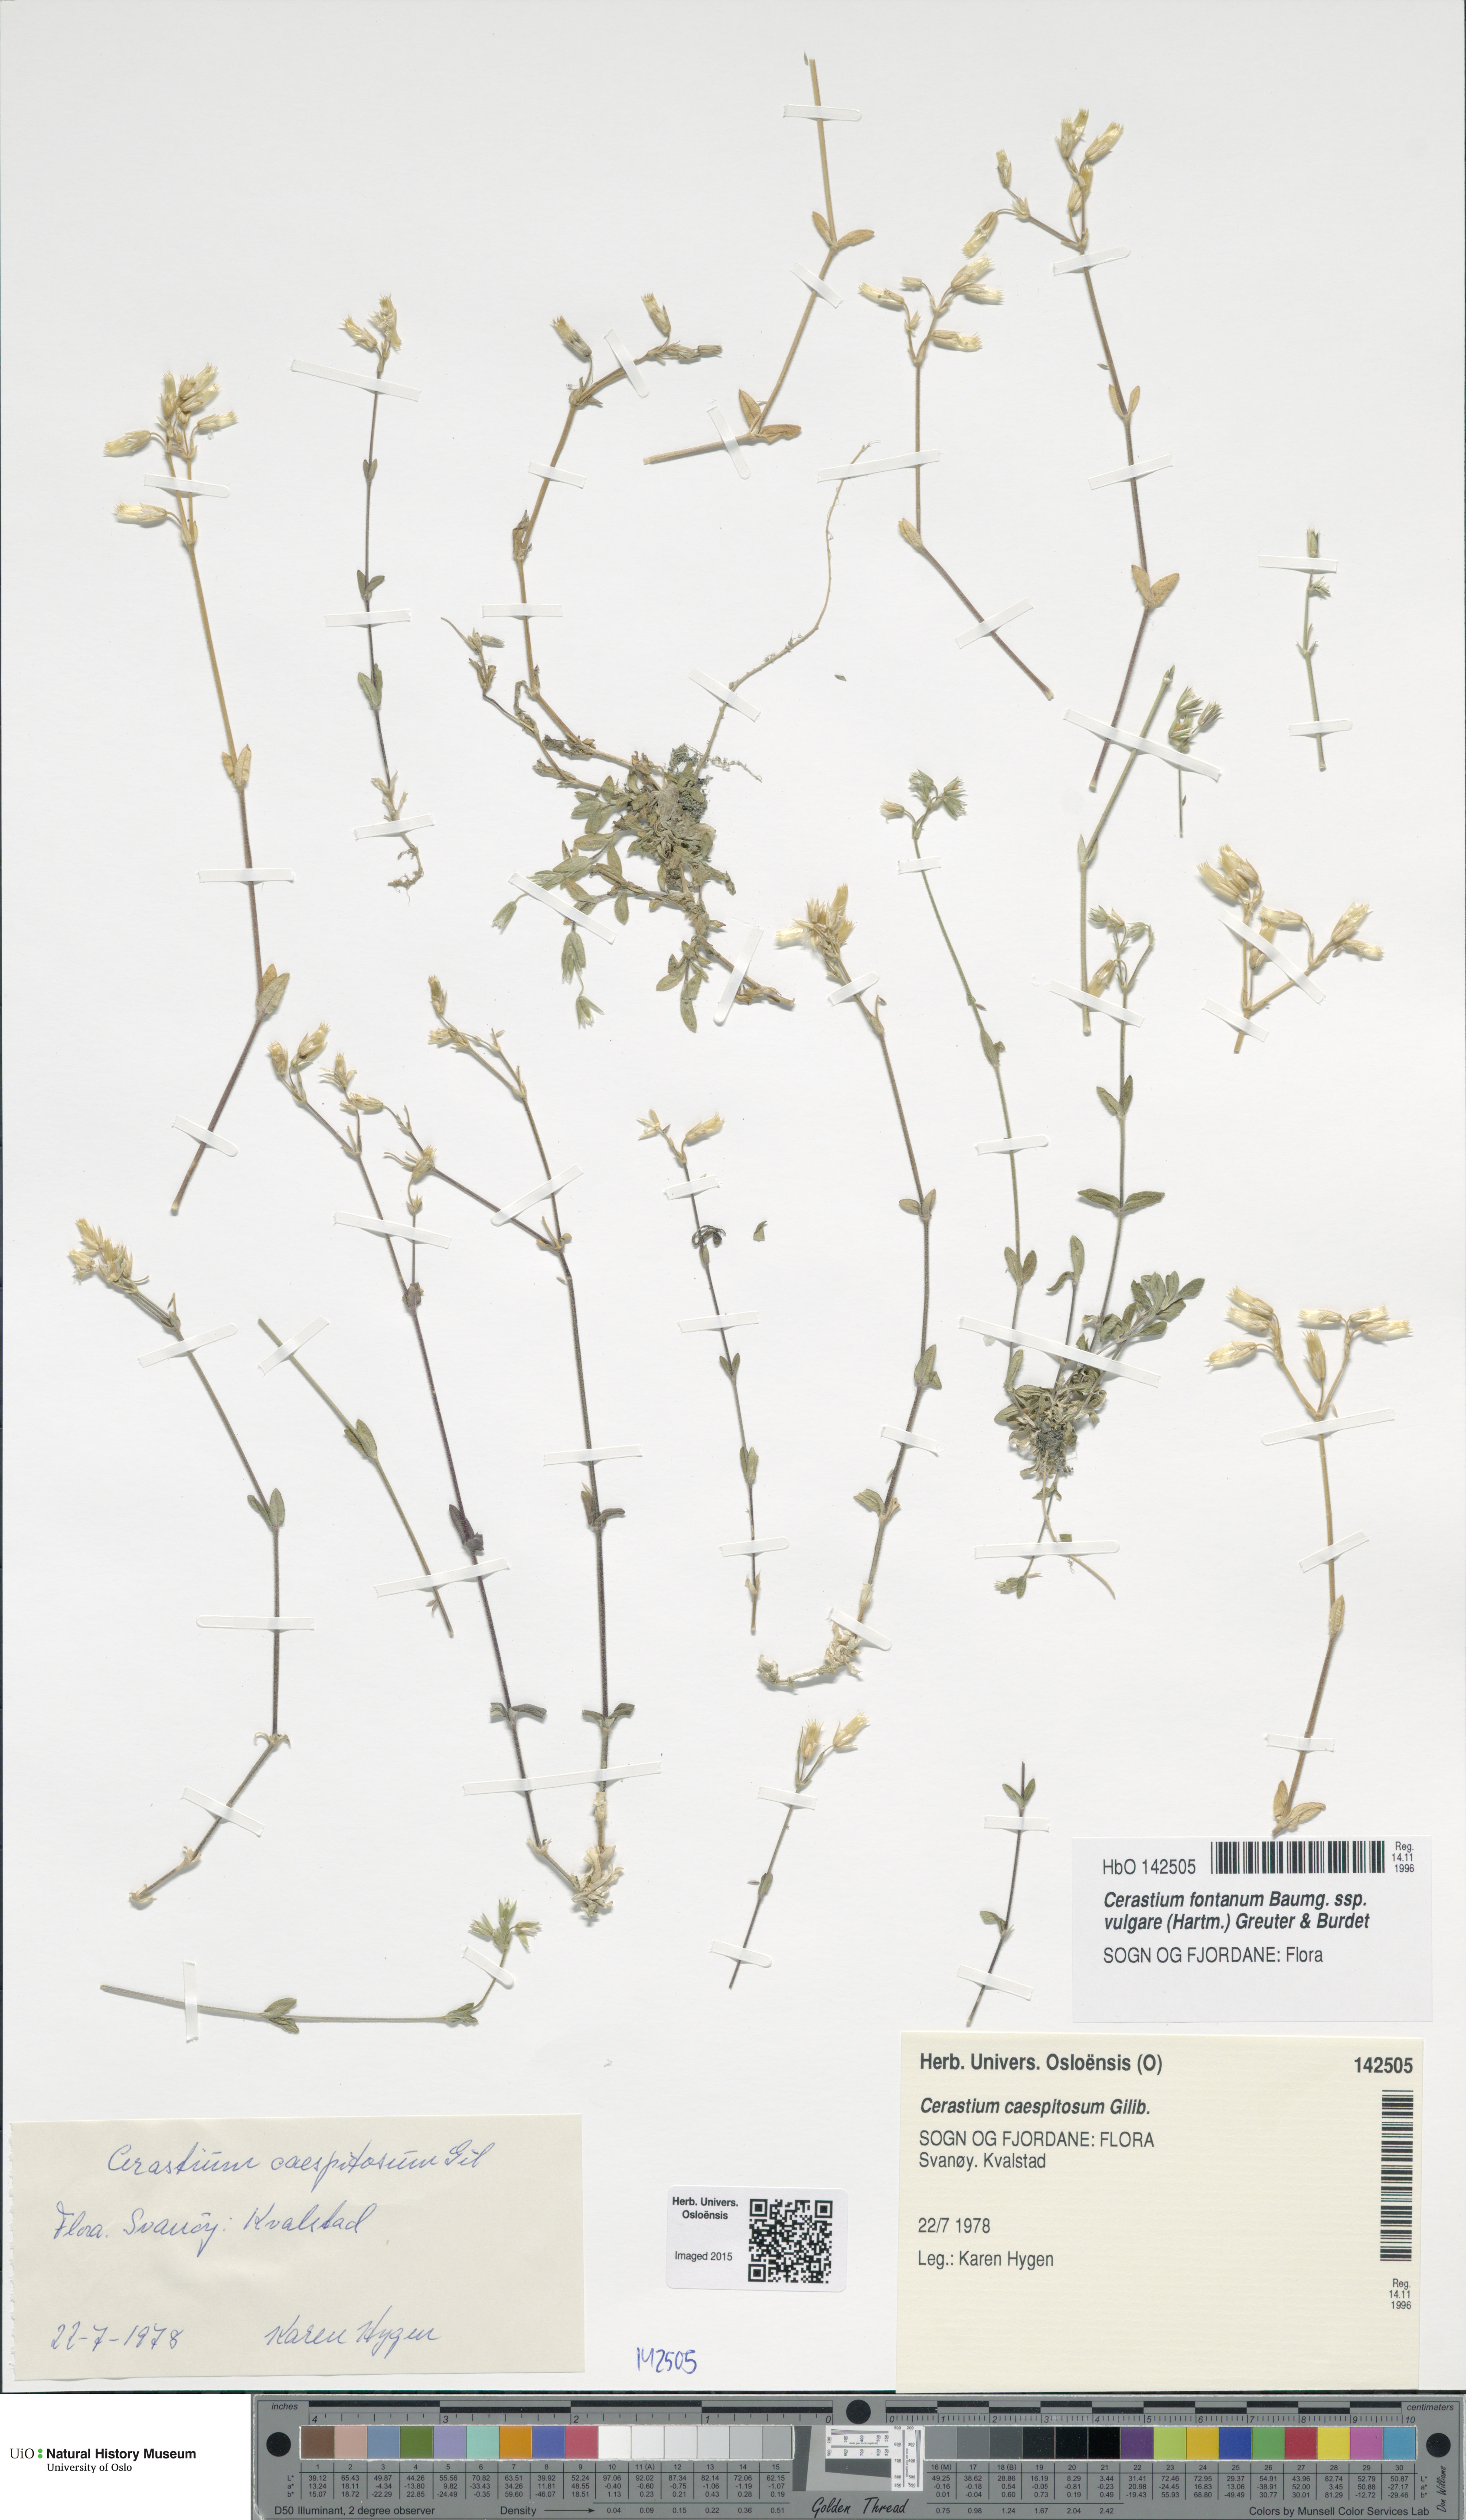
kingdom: Plantae
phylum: Tracheophyta
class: Magnoliopsida
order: Caryophyllales
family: Caryophyllaceae
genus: Cerastium
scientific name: Cerastium holosteoides
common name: Big chickweed
